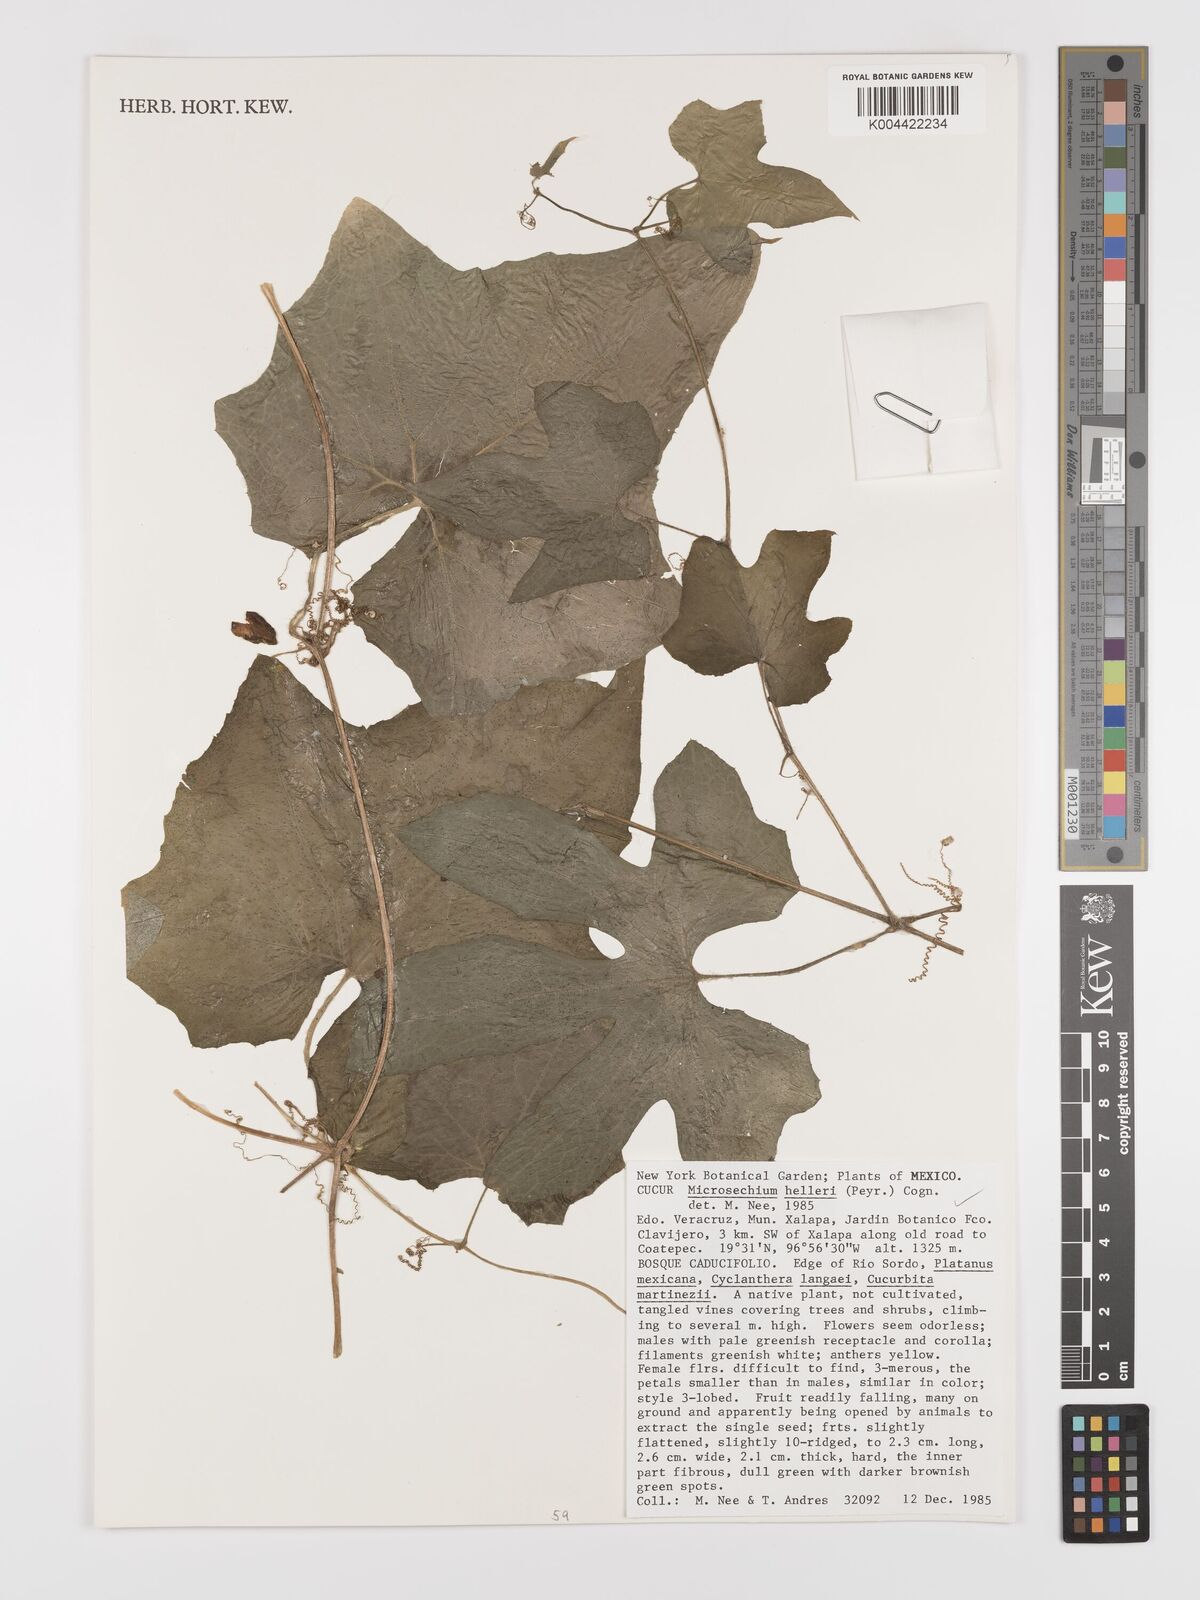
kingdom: Plantae
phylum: Tracheophyta
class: Magnoliopsida
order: Cucurbitales
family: Cucurbitaceae
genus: Microsechium
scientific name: Microsechium palmatum
